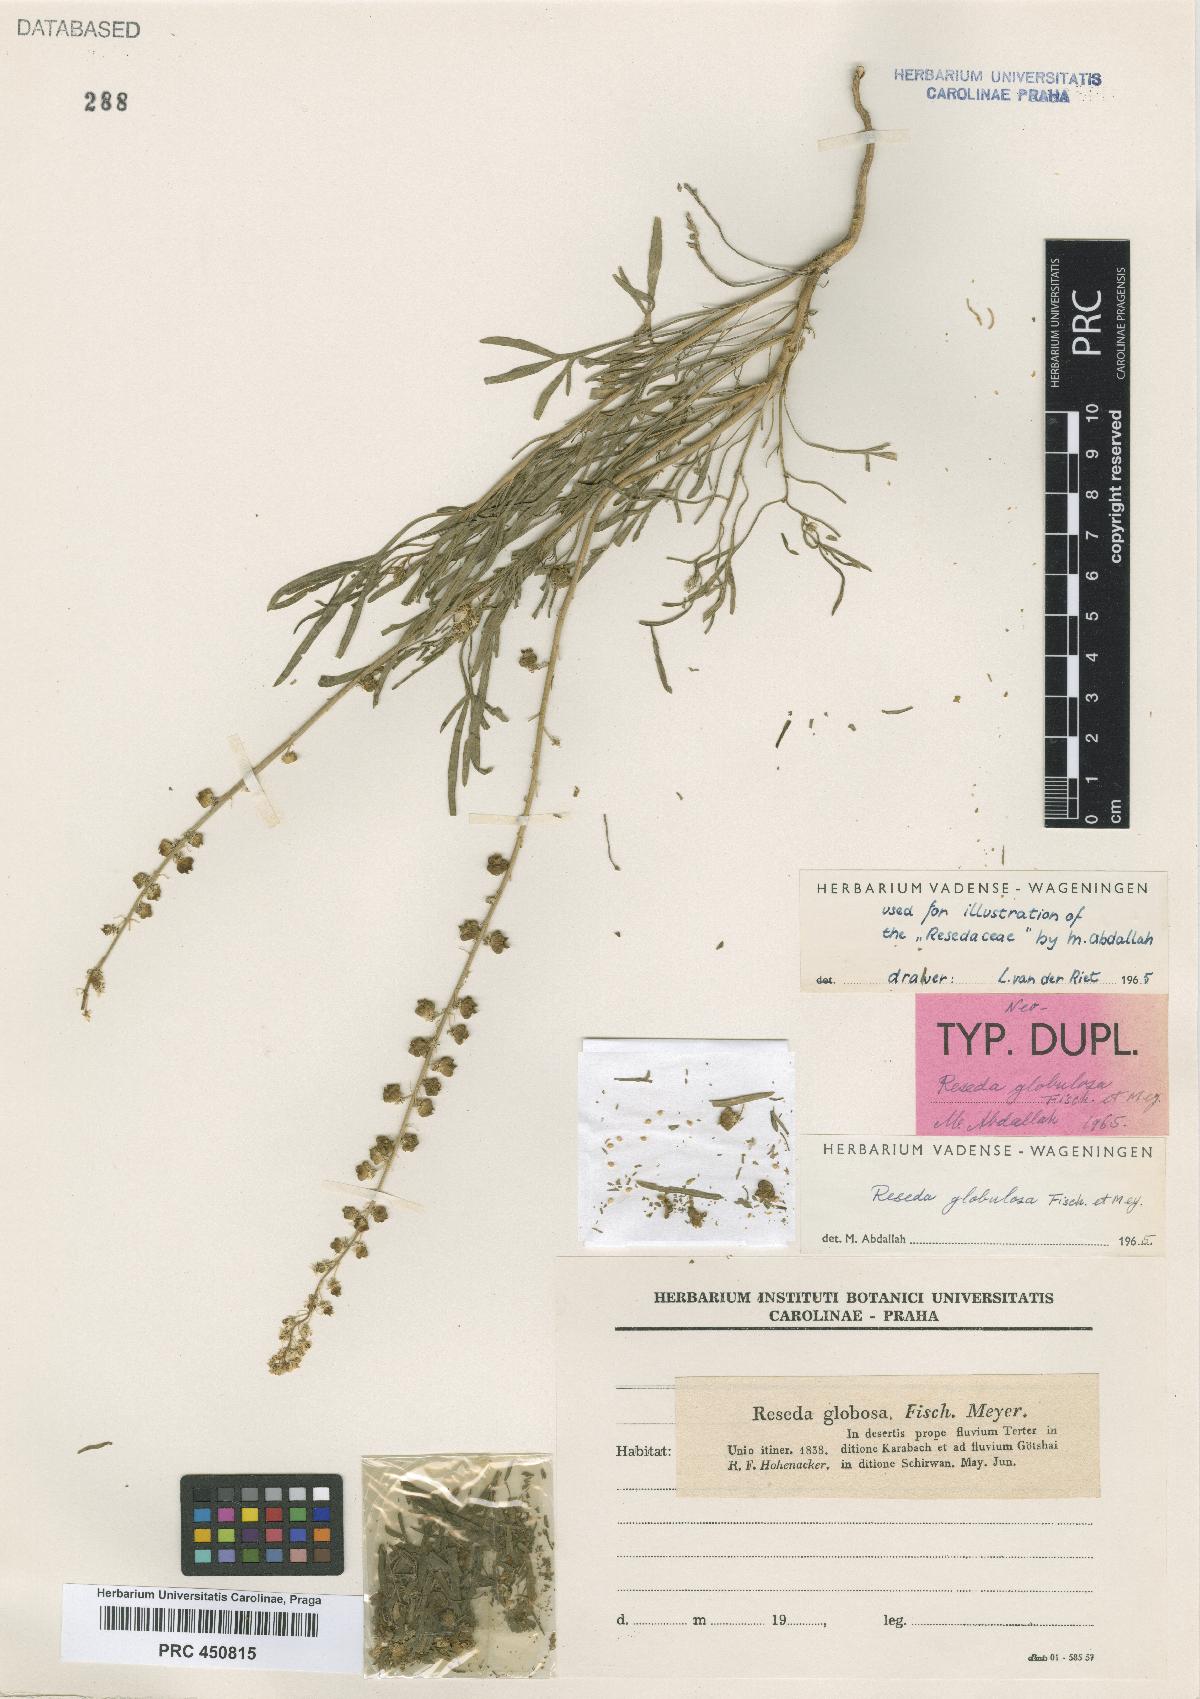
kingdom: Plantae
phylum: Tracheophyta
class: Magnoliopsida
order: Brassicales
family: Resedaceae
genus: Reseda
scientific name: Reseda globulosa
